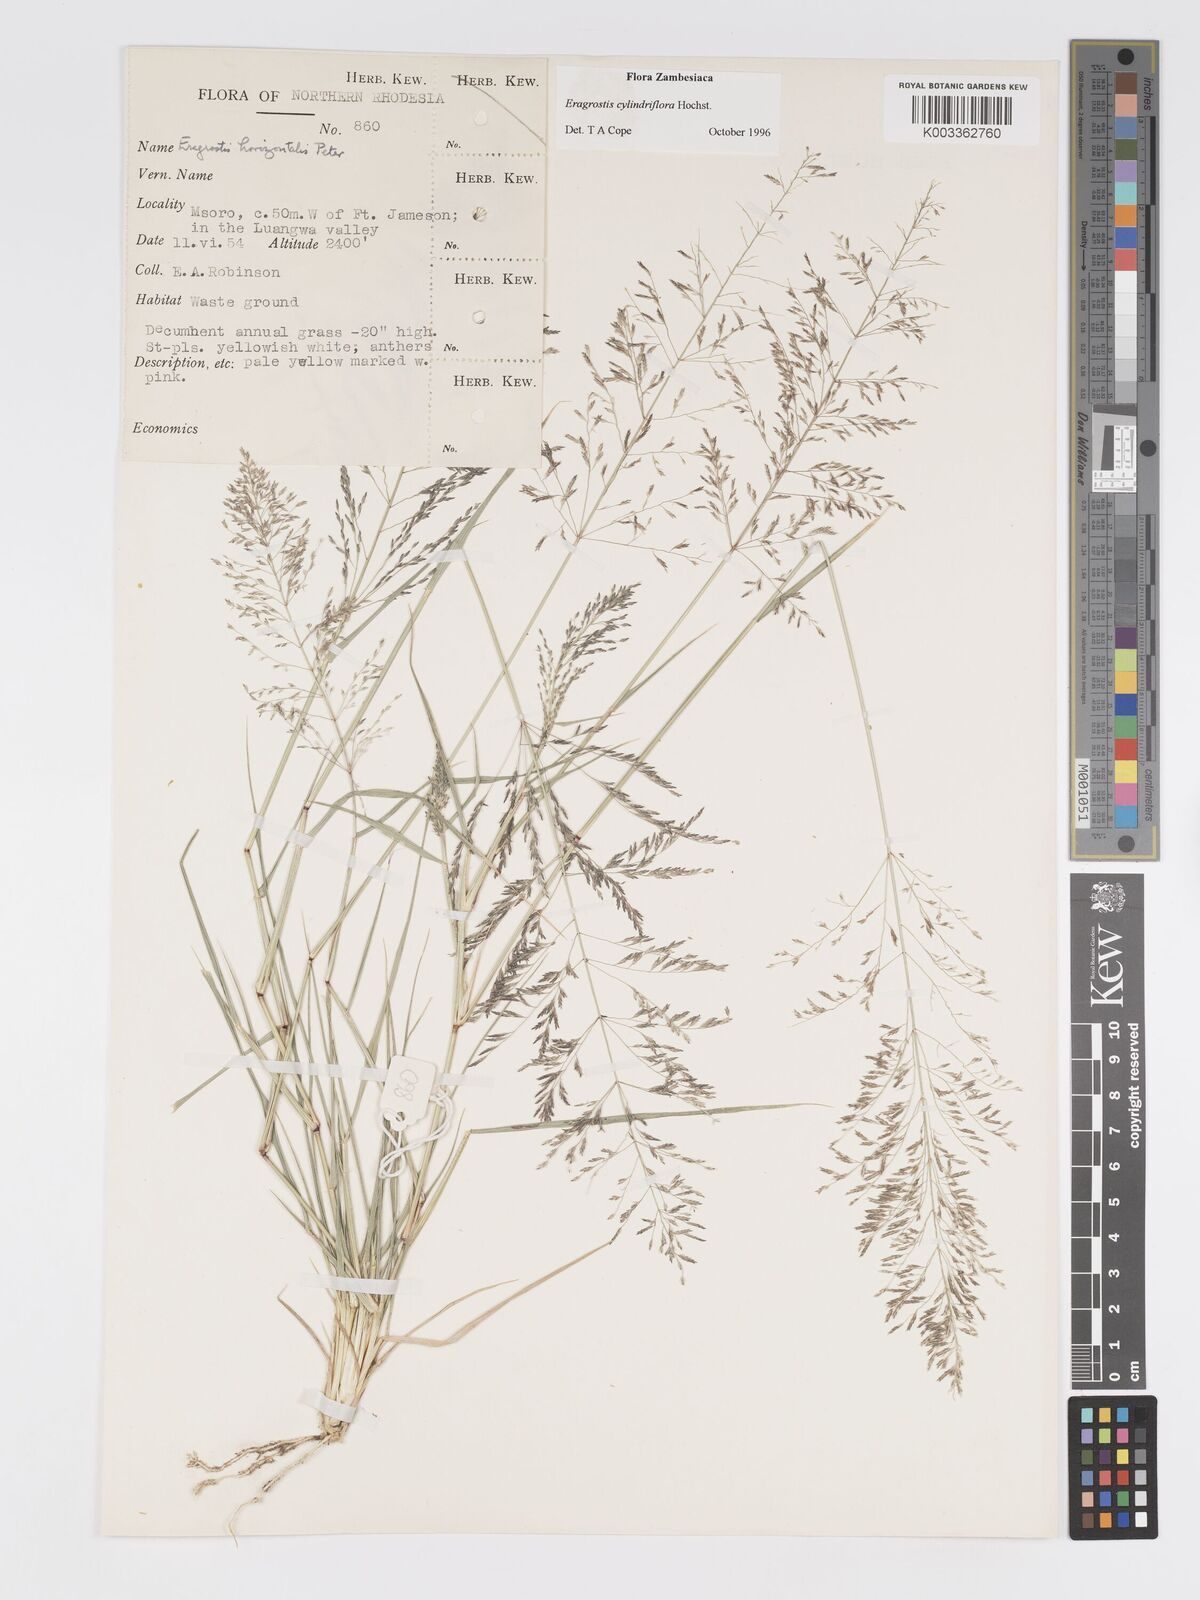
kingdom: Plantae
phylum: Tracheophyta
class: Liliopsida
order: Poales
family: Poaceae
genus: Eragrostis
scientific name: Eragrostis cylindriflora
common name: Cylinderflower lovegrass
